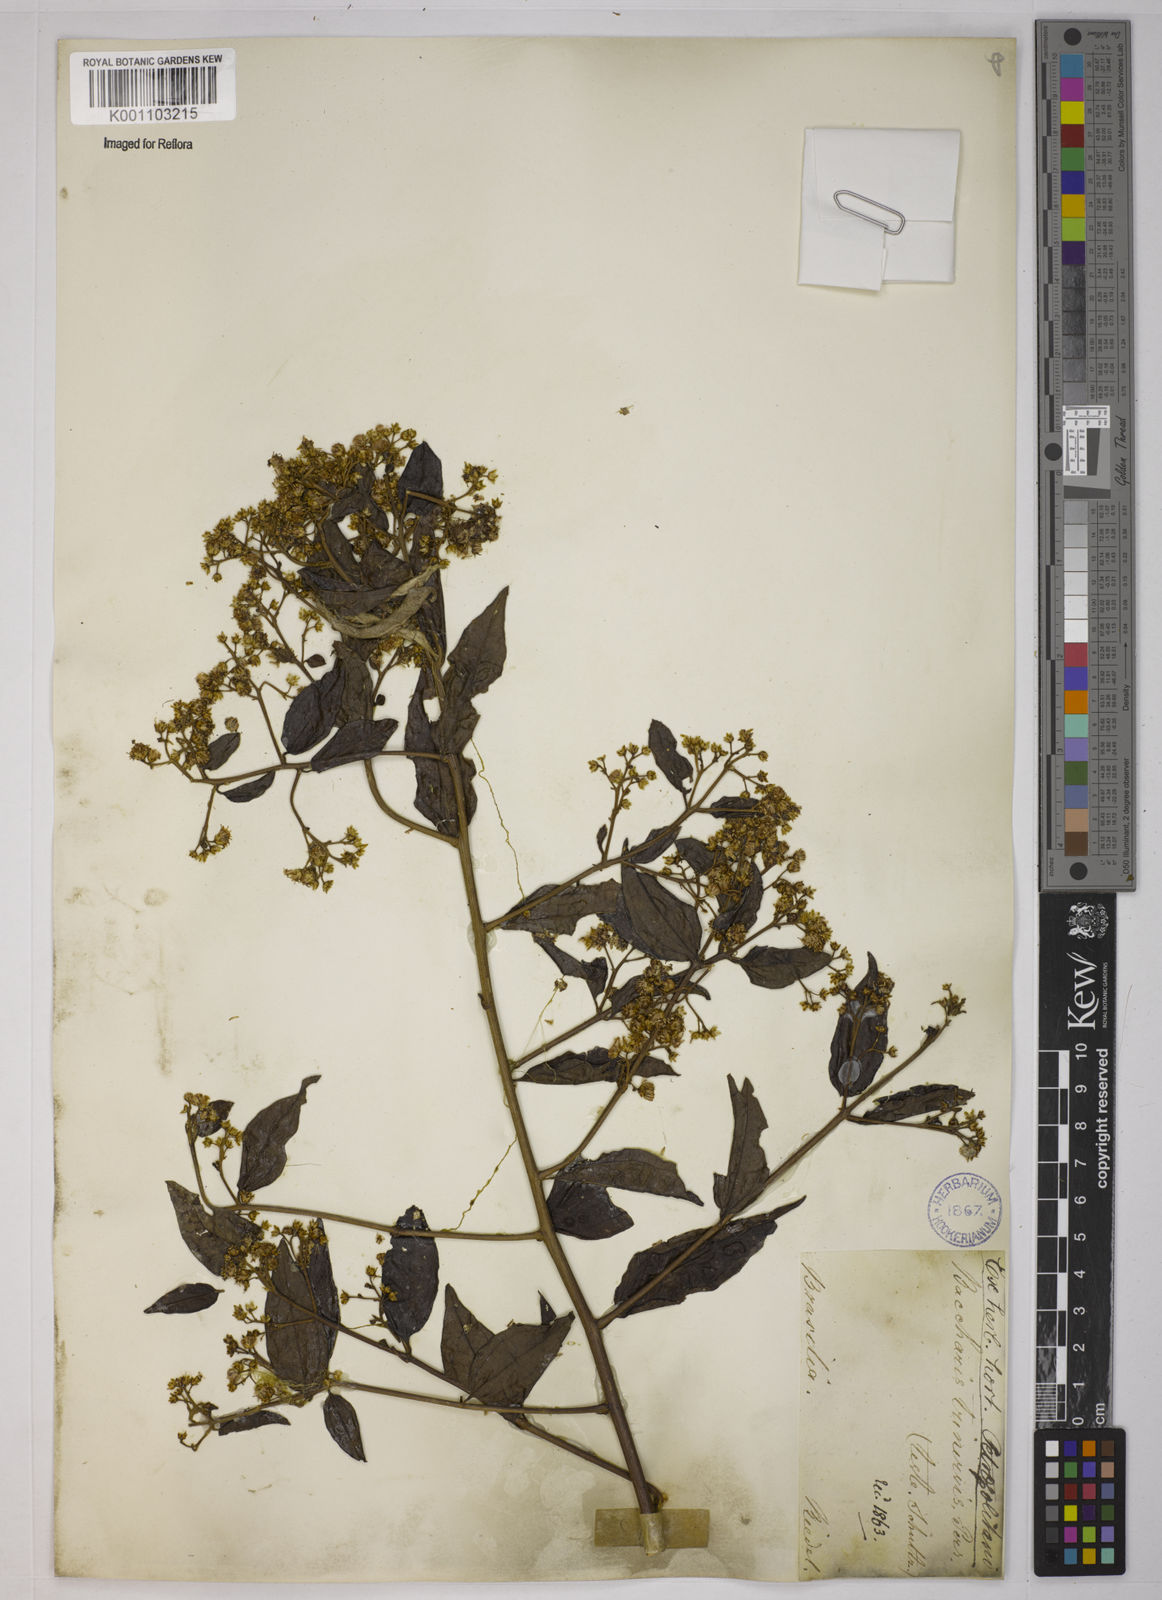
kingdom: Plantae
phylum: Tracheophyta
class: Magnoliopsida
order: Asterales
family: Asteraceae
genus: Baccharis
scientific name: Baccharis trinervis
